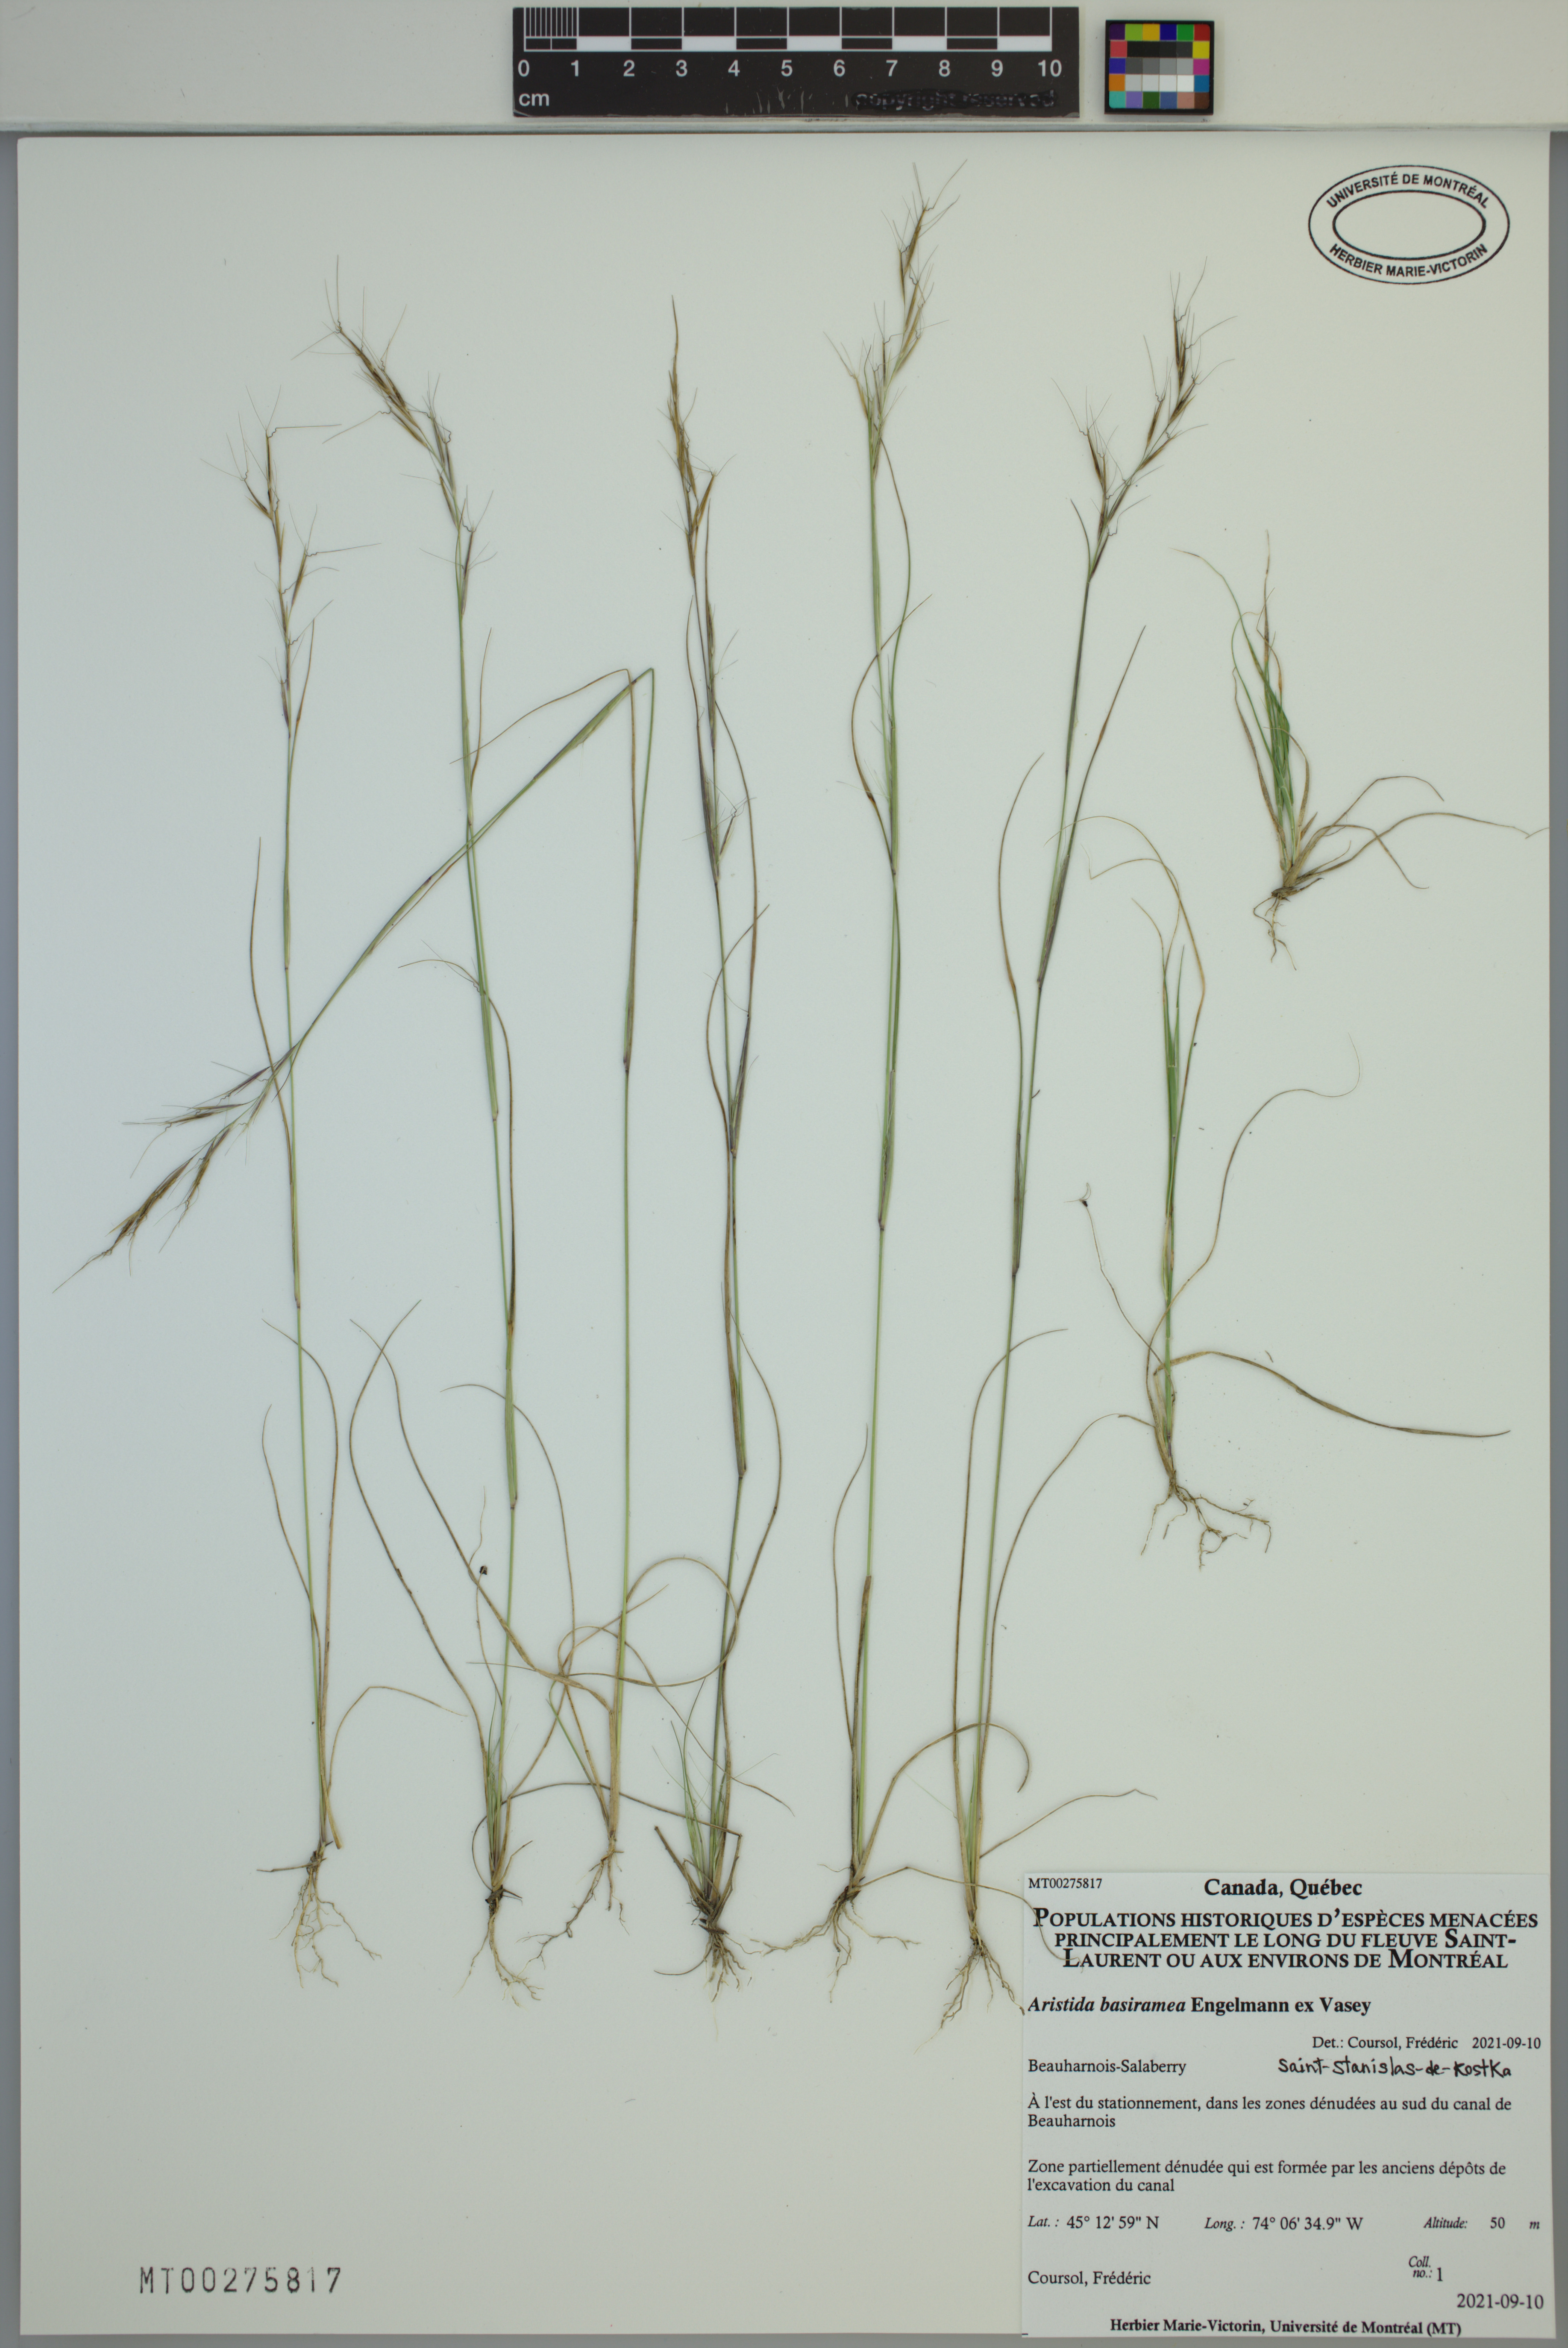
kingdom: Plantae
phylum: Tracheophyta
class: Liliopsida
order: Poales
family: Poaceae
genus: Aristida
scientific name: Aristida basiramea
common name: Forked three-awned grass
